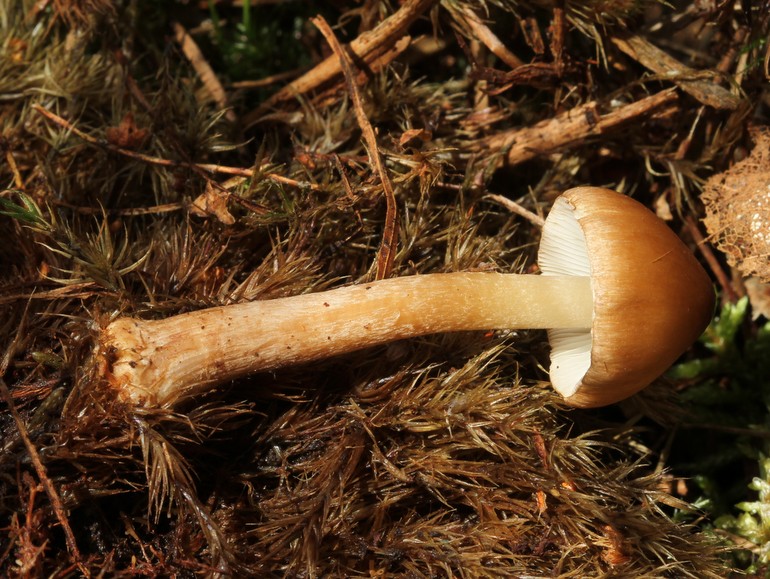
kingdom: Fungi
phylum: Basidiomycota
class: Agaricomycetes
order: Agaricales
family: Inocybaceae
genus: Inocybe
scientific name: Inocybe napipes
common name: roeknoldet trævlhat
